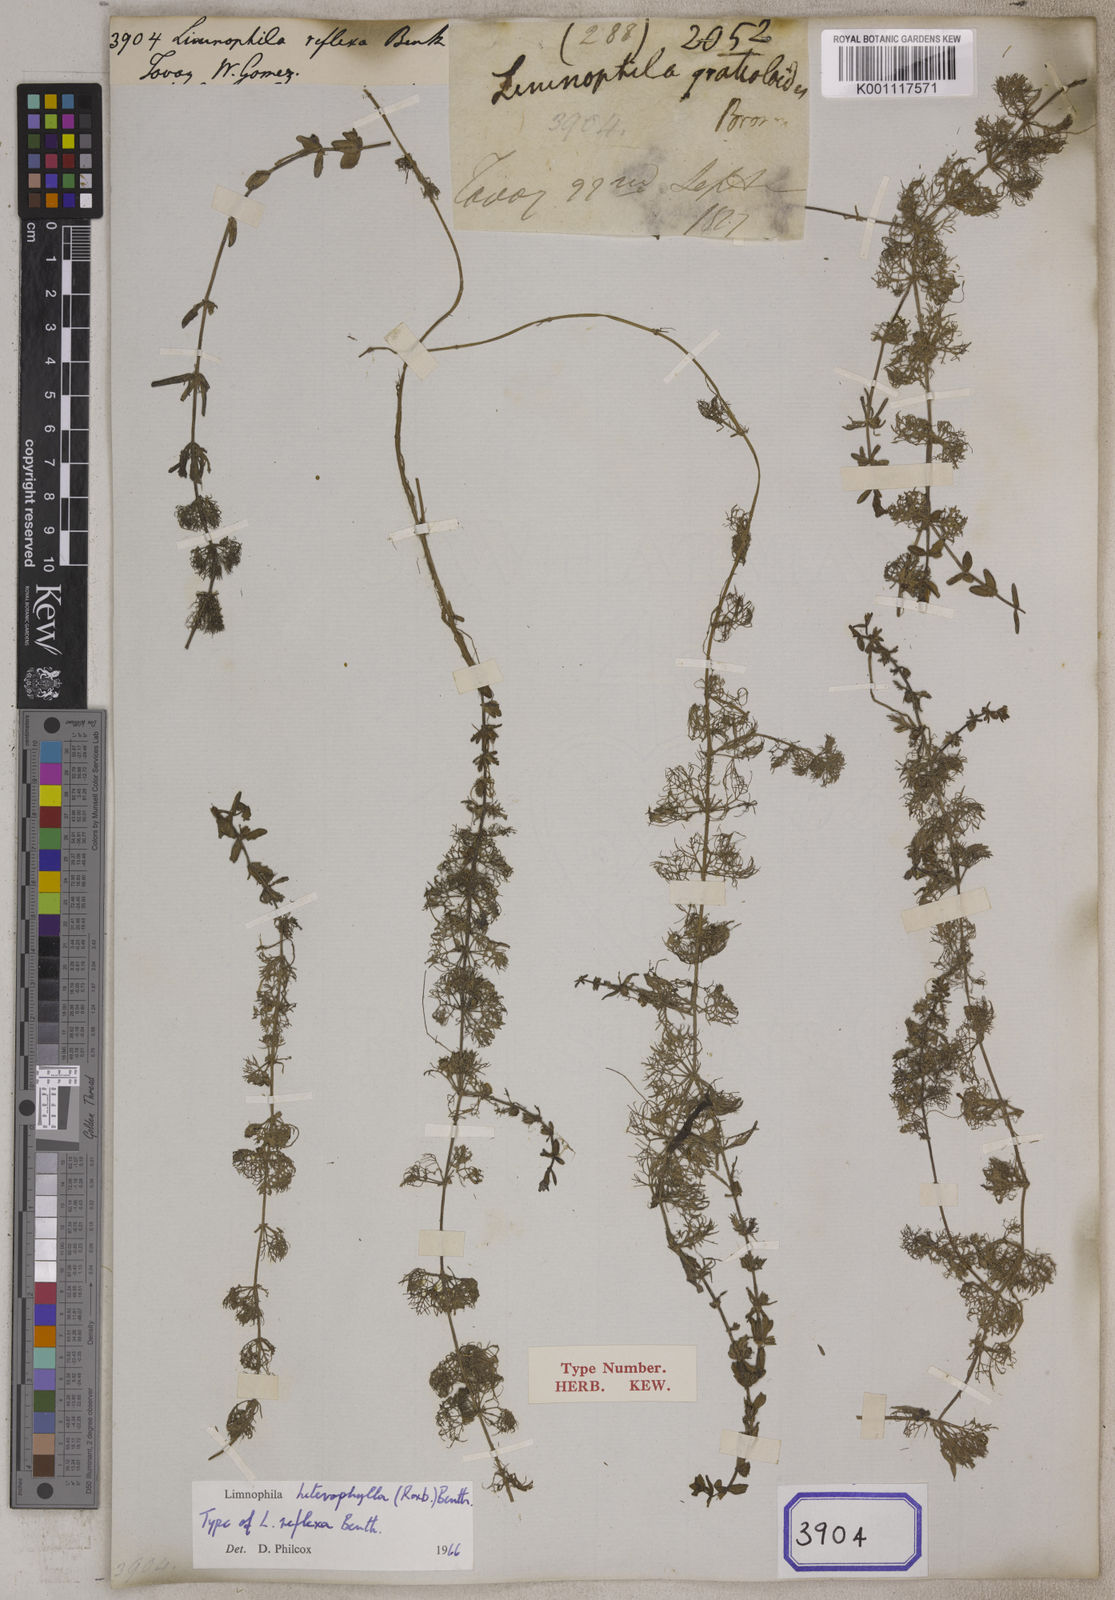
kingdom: Plantae
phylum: Tracheophyta
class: Magnoliopsida
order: Lamiales
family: Plantaginaceae
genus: Limnophila
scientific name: Limnophila heterophylla
